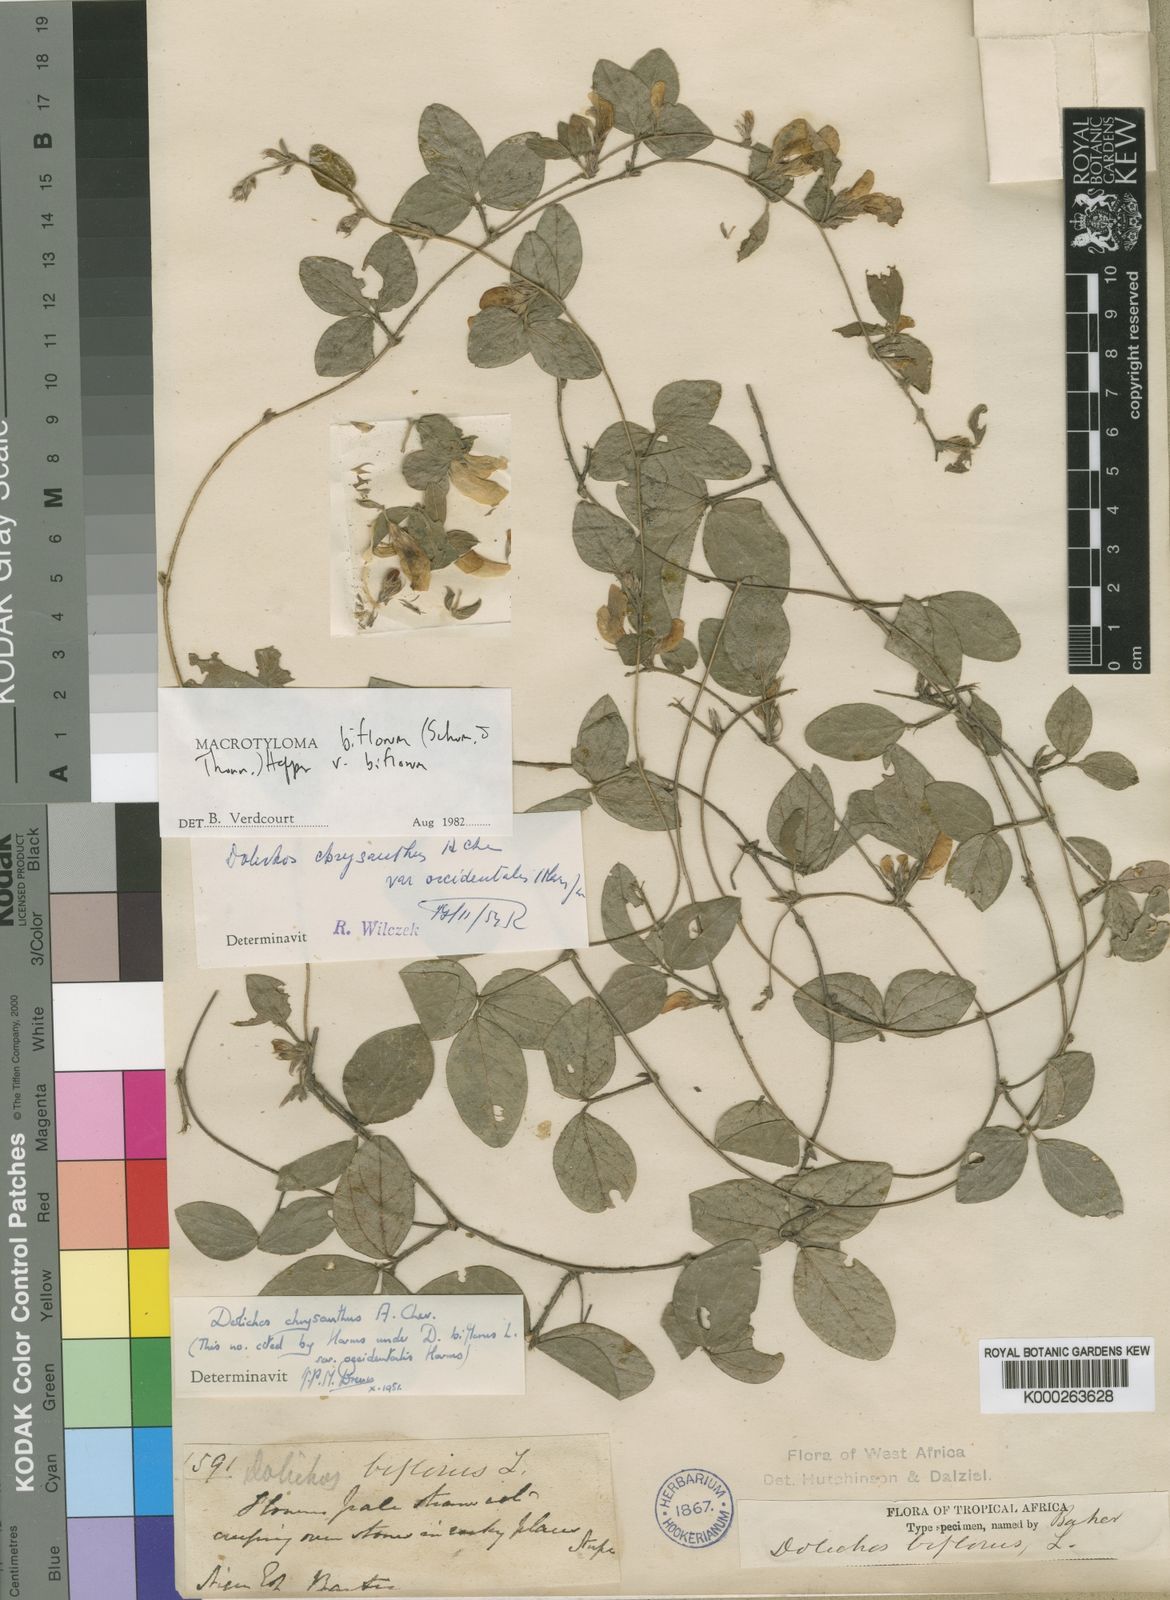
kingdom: Plantae
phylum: Tracheophyta
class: Magnoliopsida
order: Fabales
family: Fabaceae
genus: Macrotyloma
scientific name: Macrotyloma biflorum
